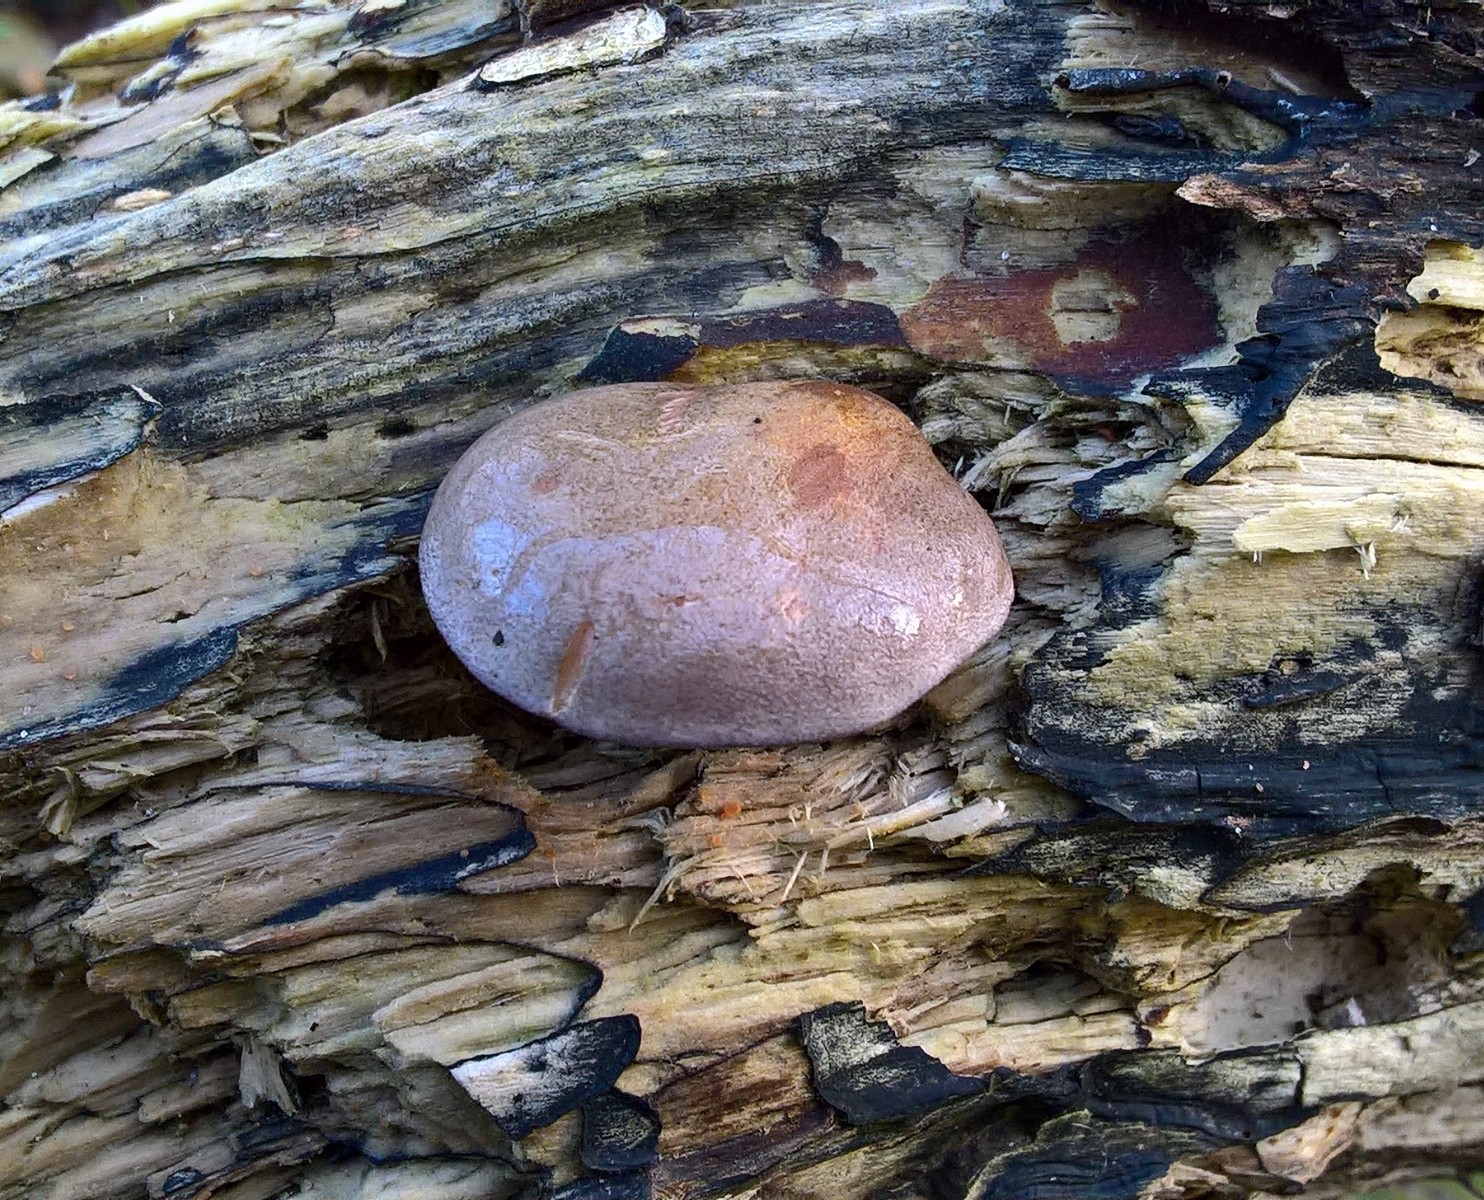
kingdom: Fungi
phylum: Basidiomycota
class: Agaricomycetes
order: Agaricales
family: Sarcomyxaceae
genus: Sarcomyxa
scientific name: Sarcomyxa serotina
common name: gummihat
